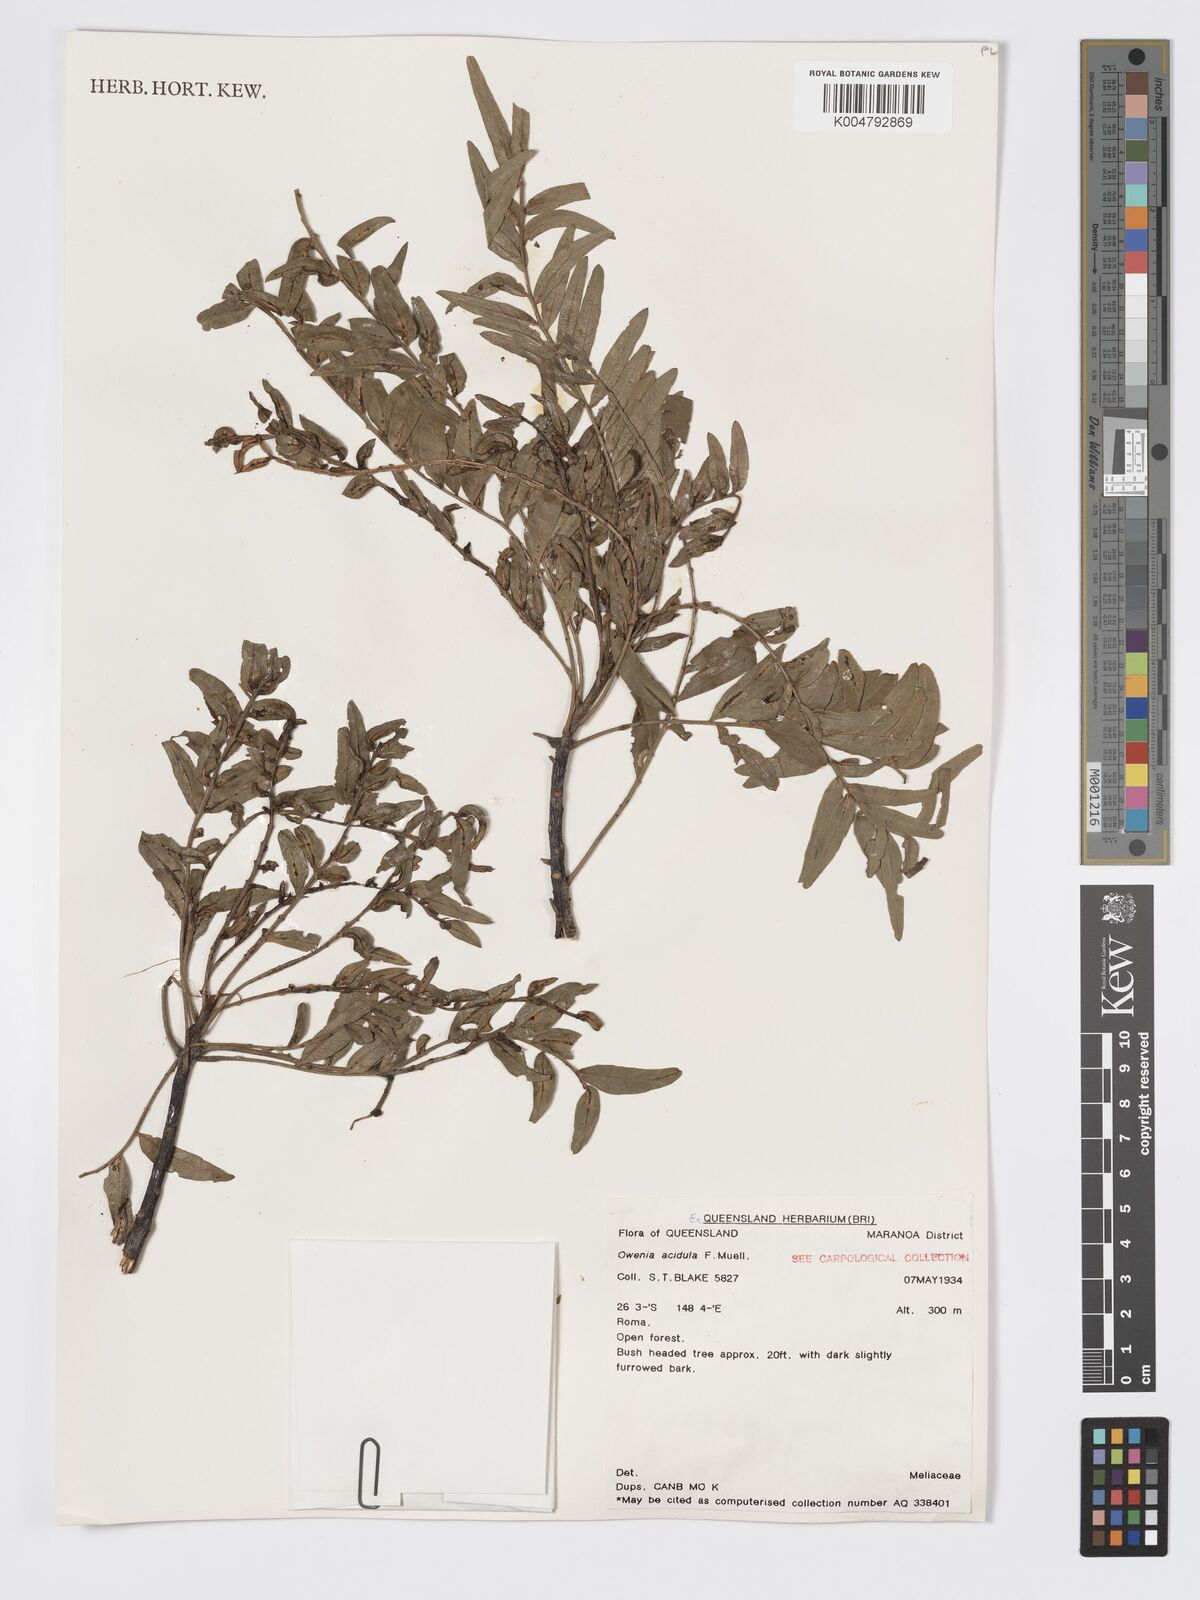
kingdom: Plantae
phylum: Tracheophyta
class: Magnoliopsida
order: Sapindales
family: Meliaceae
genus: Owenia
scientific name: Owenia acidula
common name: Tulipwood
